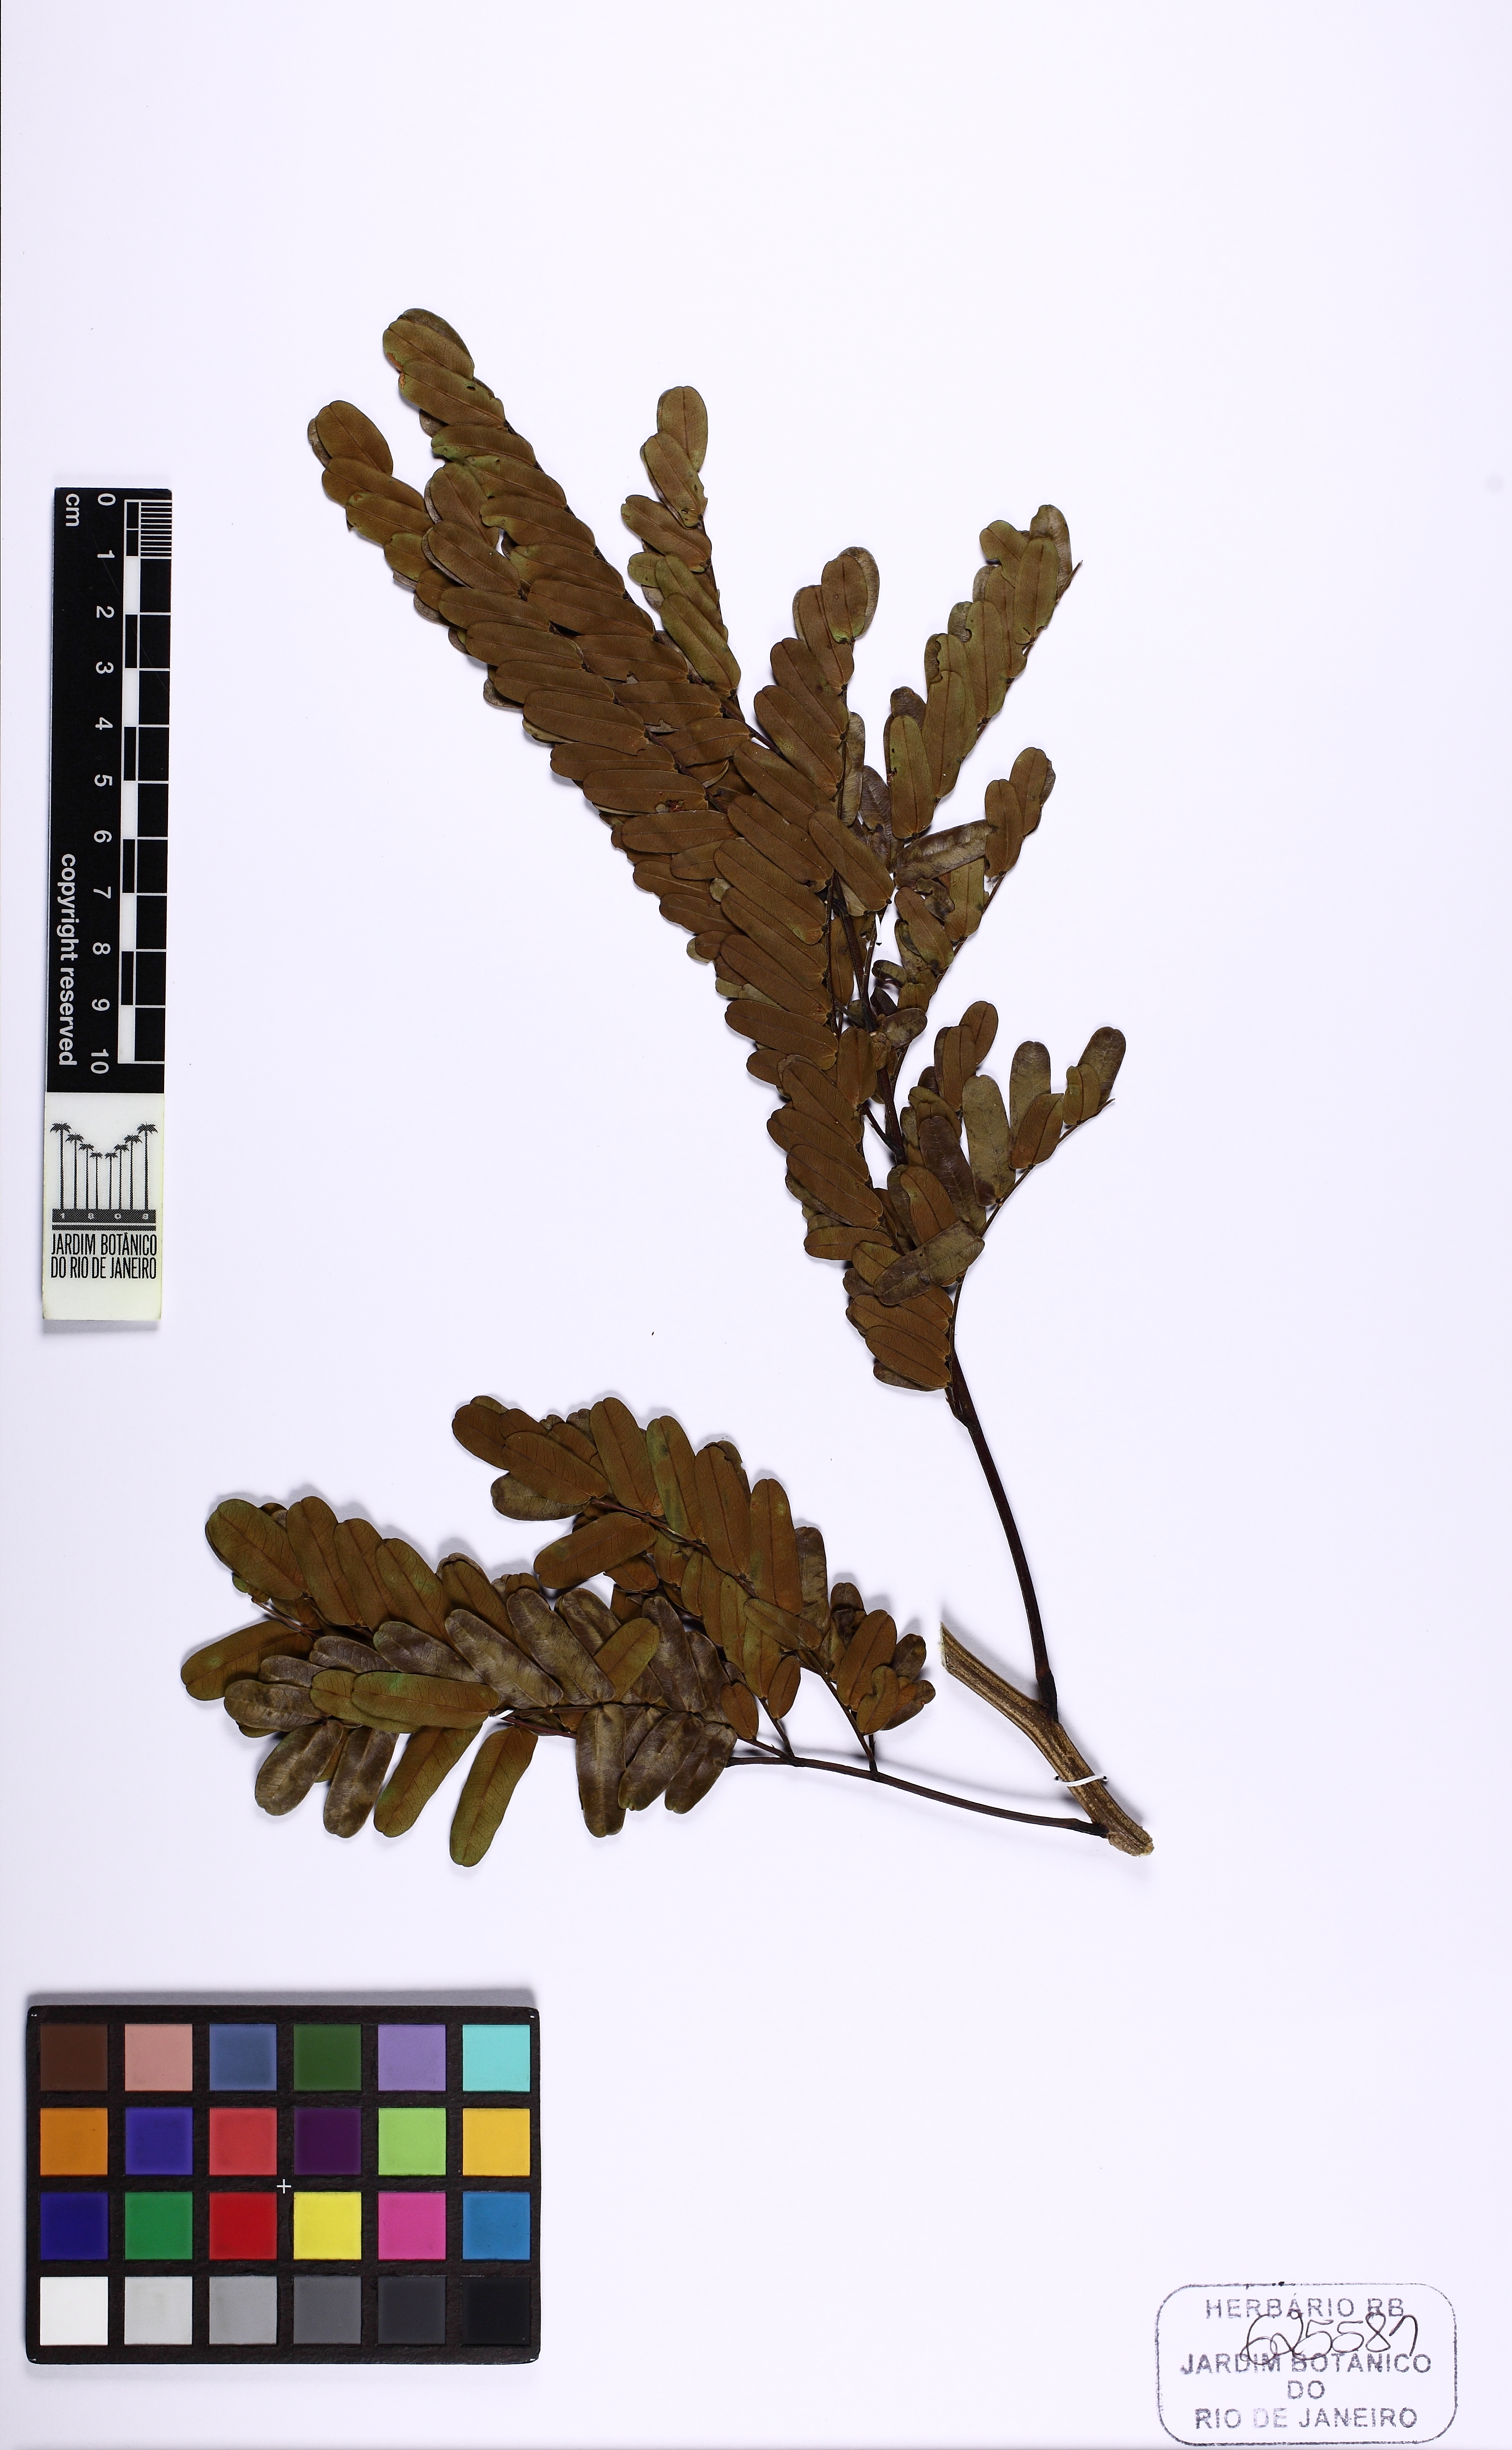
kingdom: Plantae
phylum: Tracheophyta
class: Magnoliopsida
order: Fabales
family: Fabaceae
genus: Entada
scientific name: Entada
